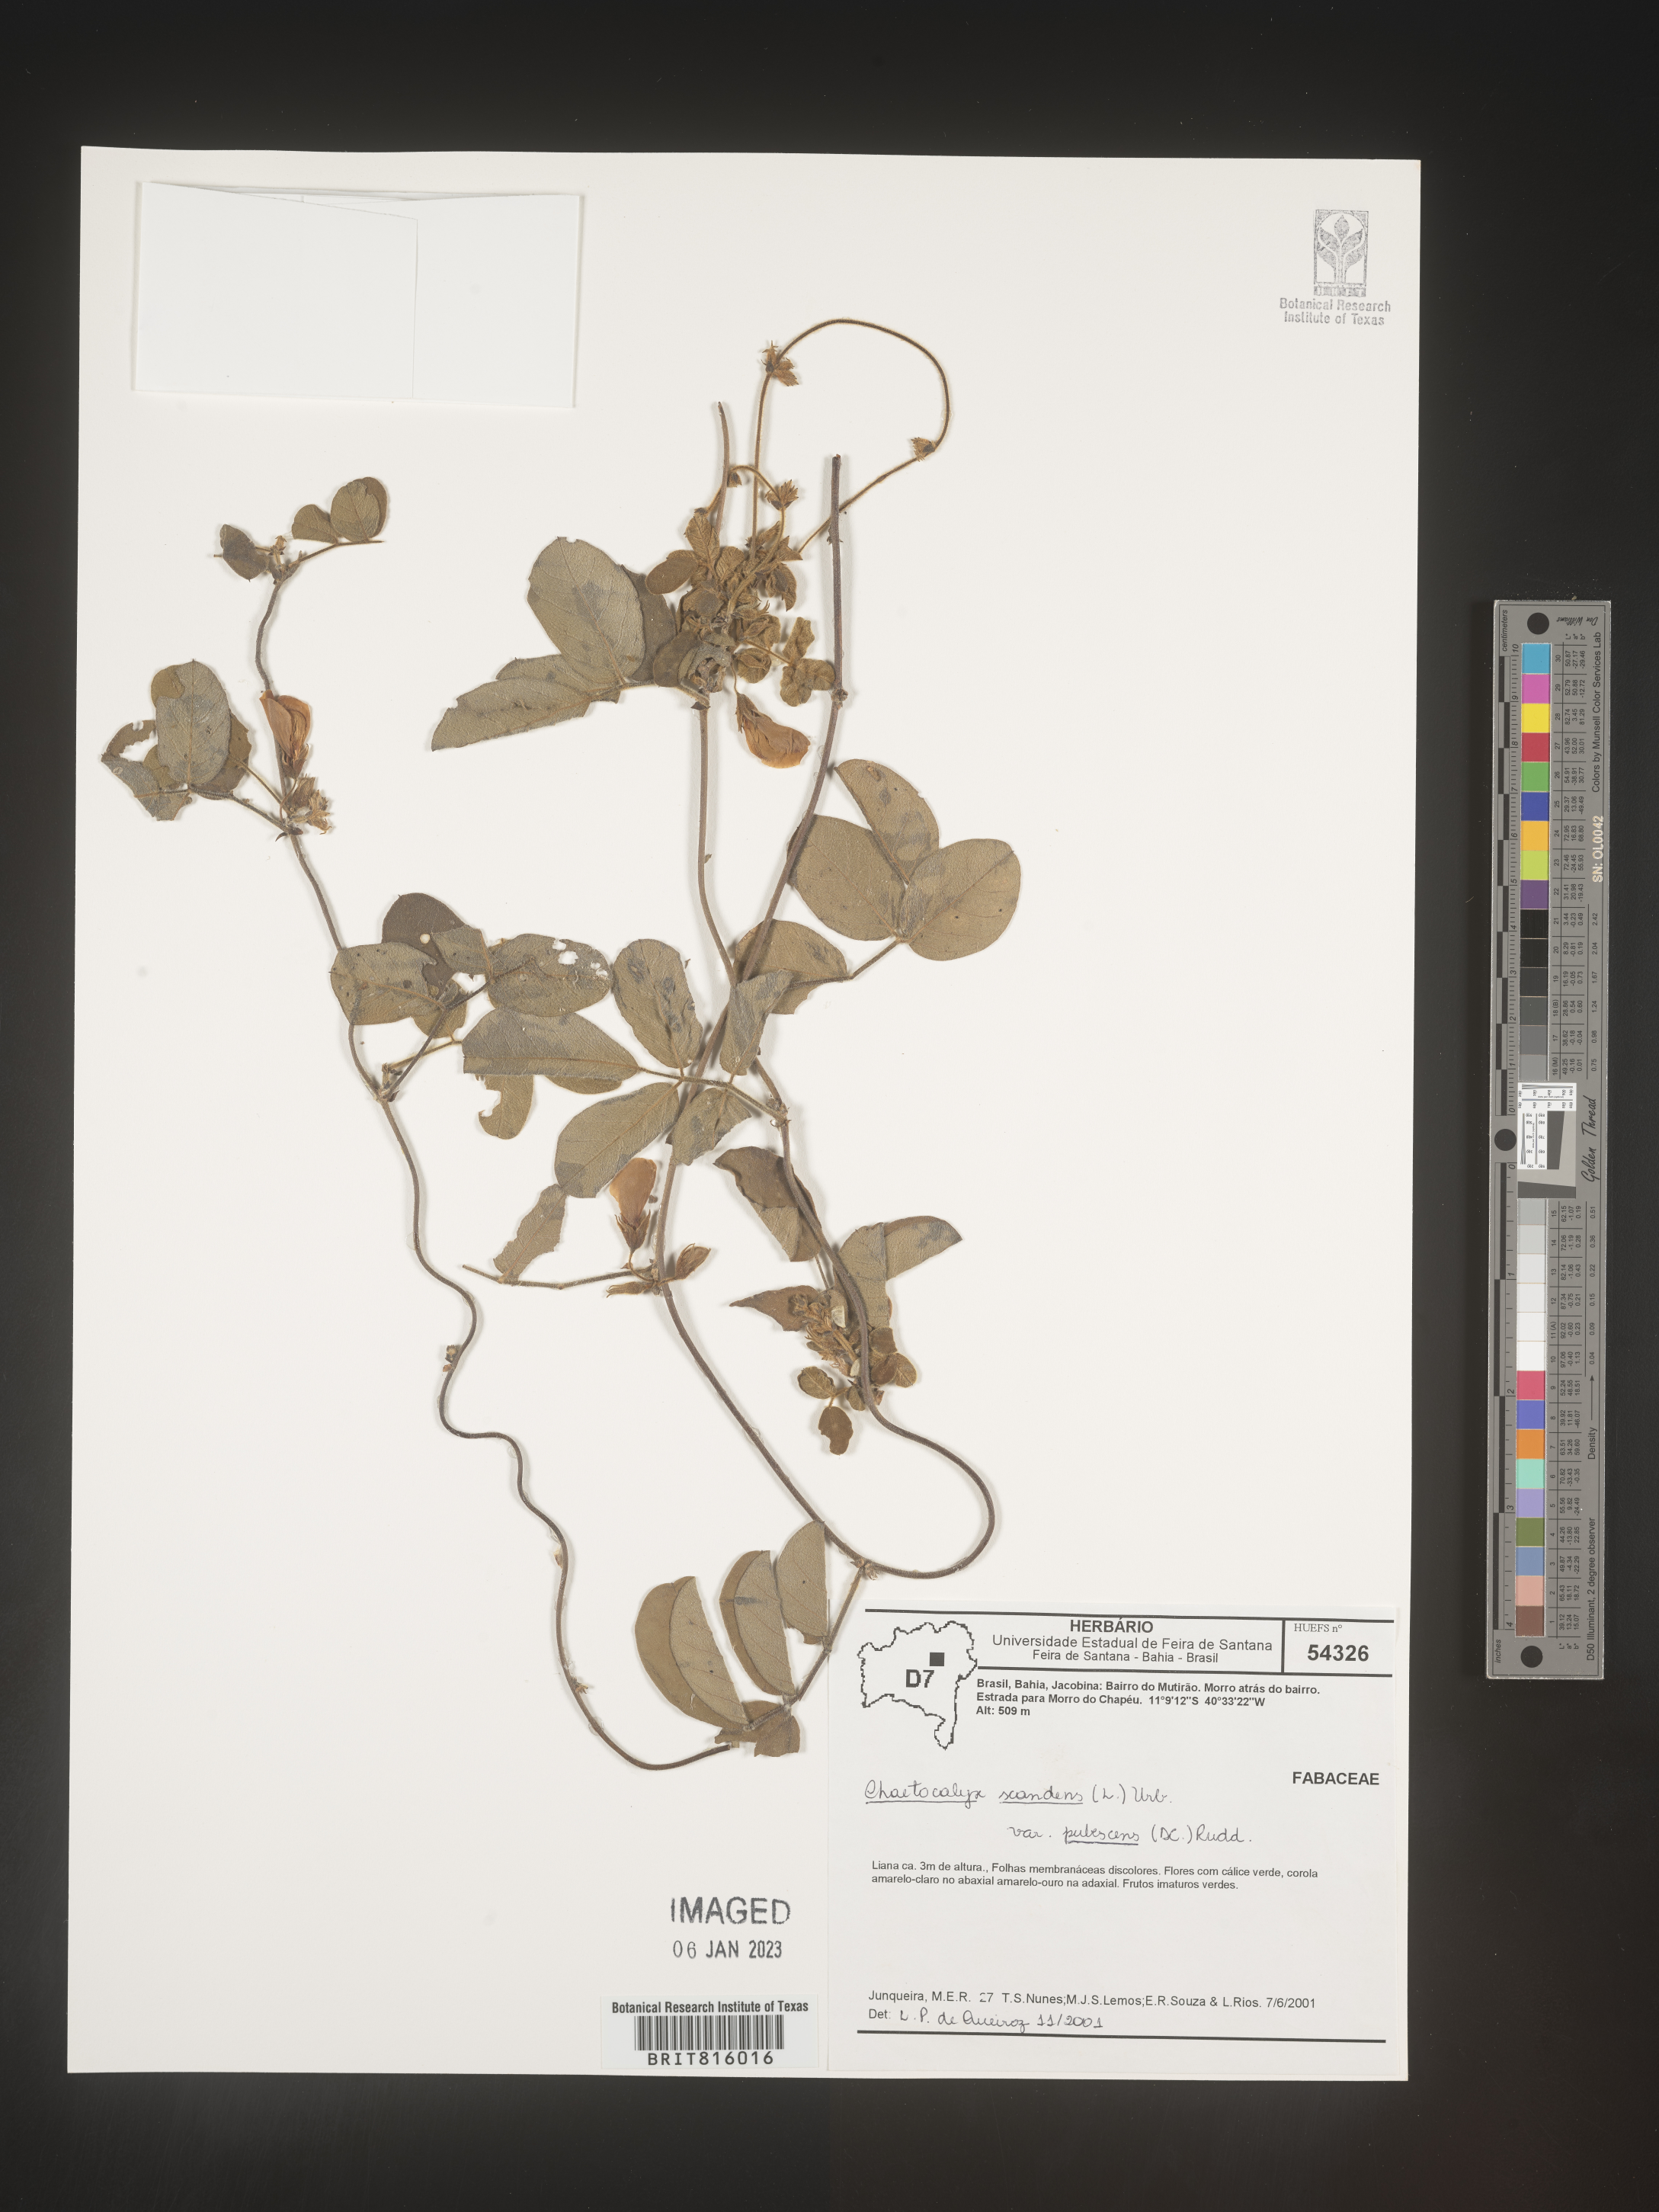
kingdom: Plantae
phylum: Tracheophyta
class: Magnoliopsida
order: Fabales
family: Fabaceae
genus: Nissolia
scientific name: Nissolia
